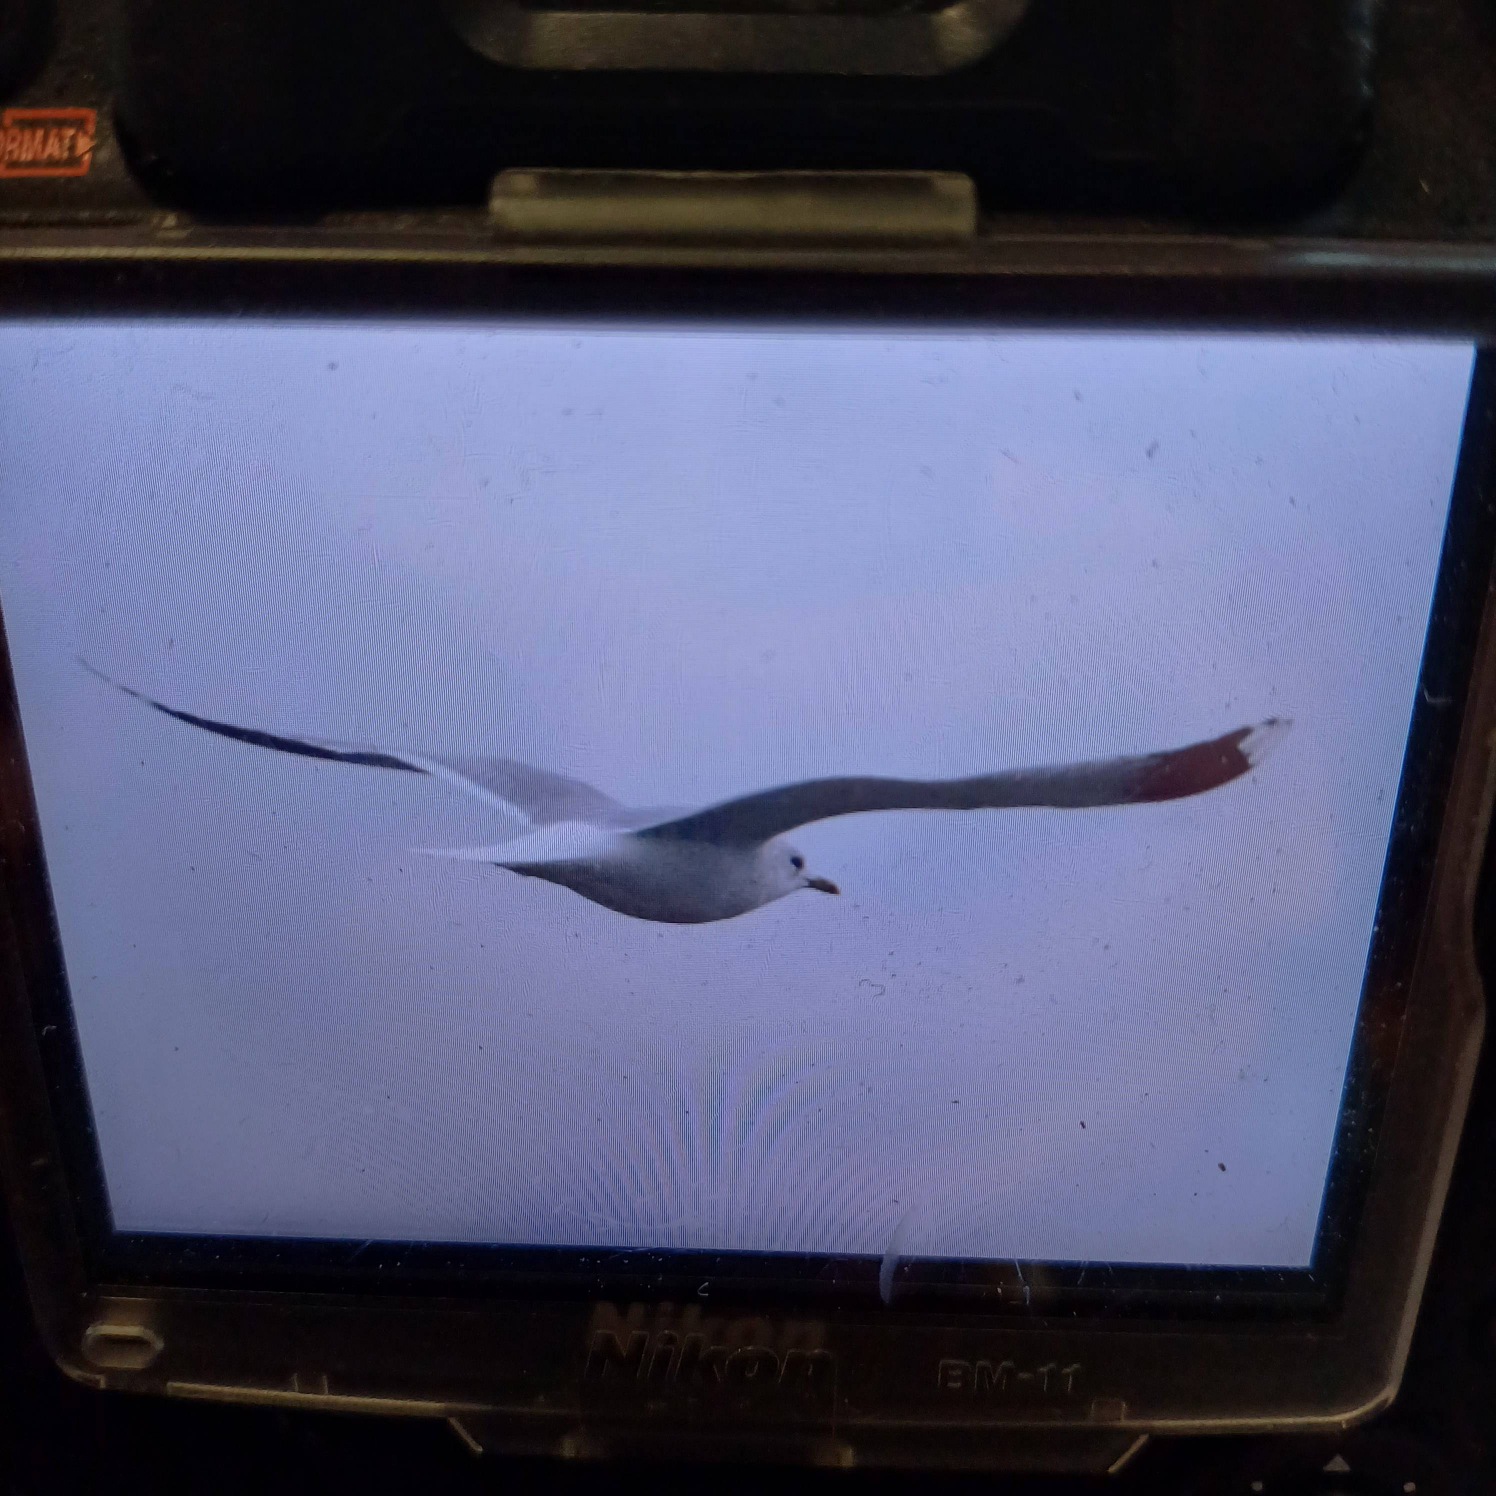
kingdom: Animalia
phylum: Chordata
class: Aves
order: Charadriiformes
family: Laridae
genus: Larus
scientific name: Larus canus
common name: Stormmåge
